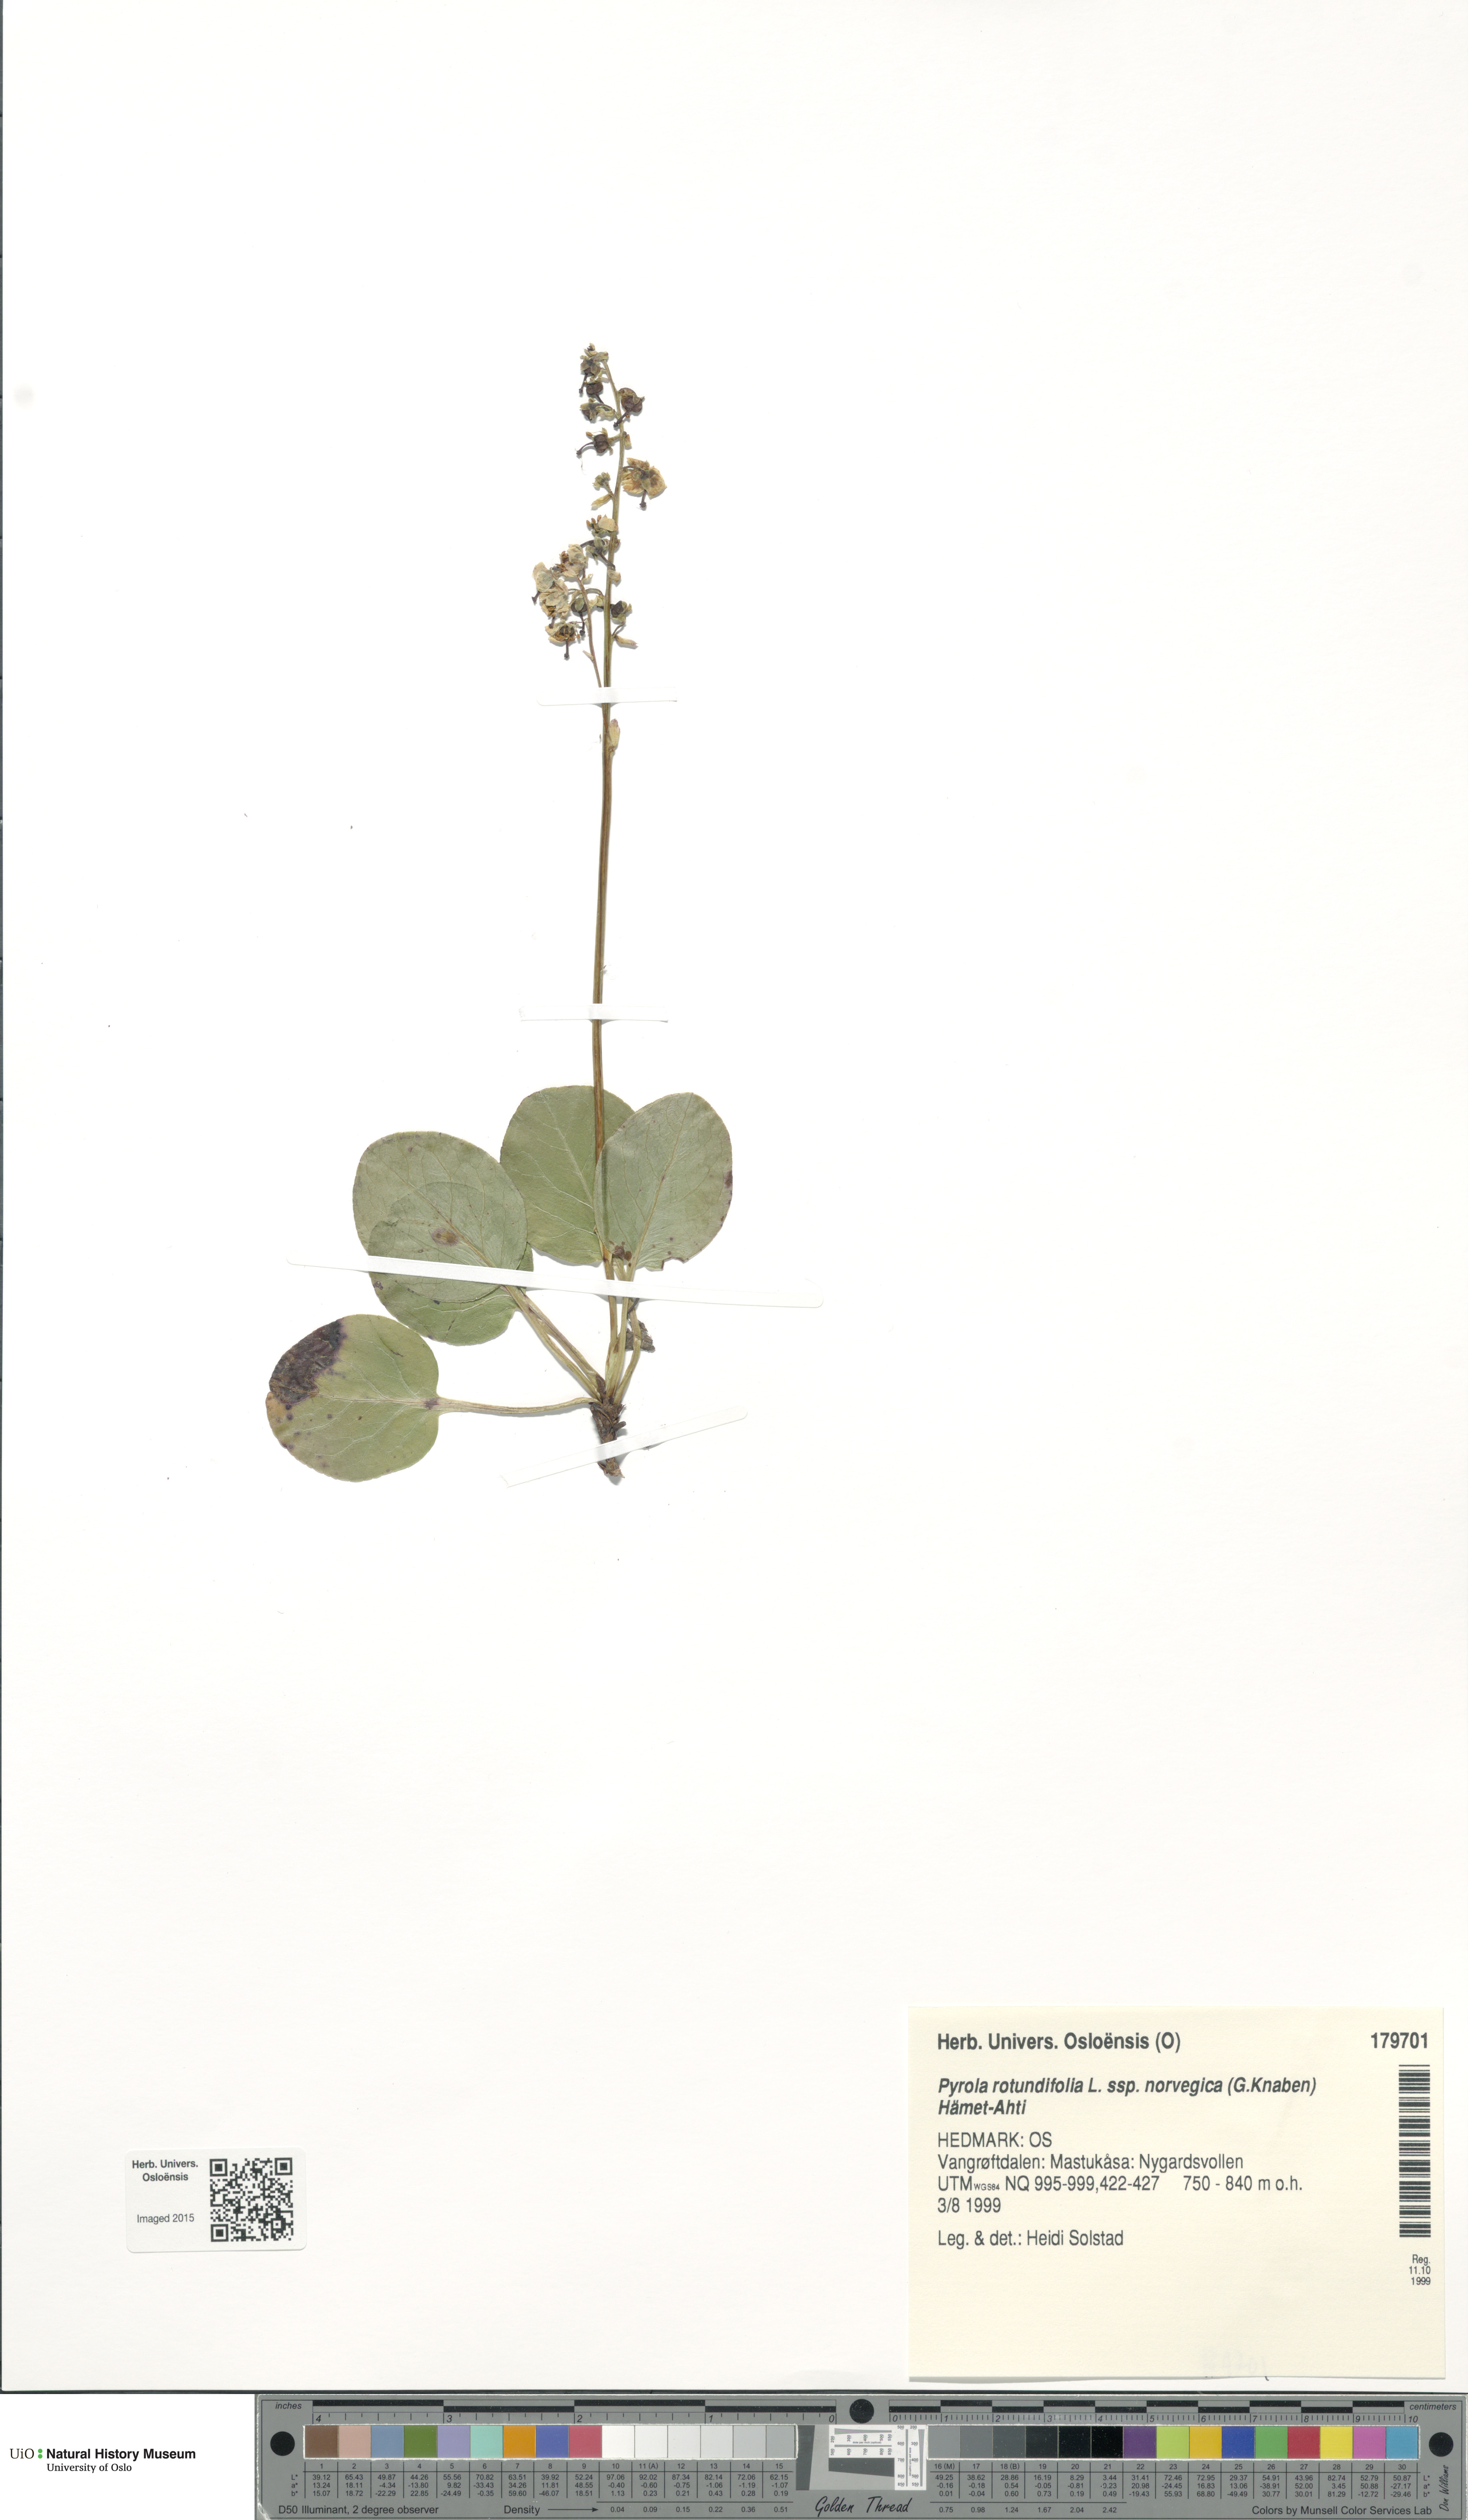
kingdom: Plantae
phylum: Tracheophyta
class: Magnoliopsida
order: Ericales
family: Ericaceae
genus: Pyrola
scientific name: Pyrola rotundifolia
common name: Round-leaved wintergreen
